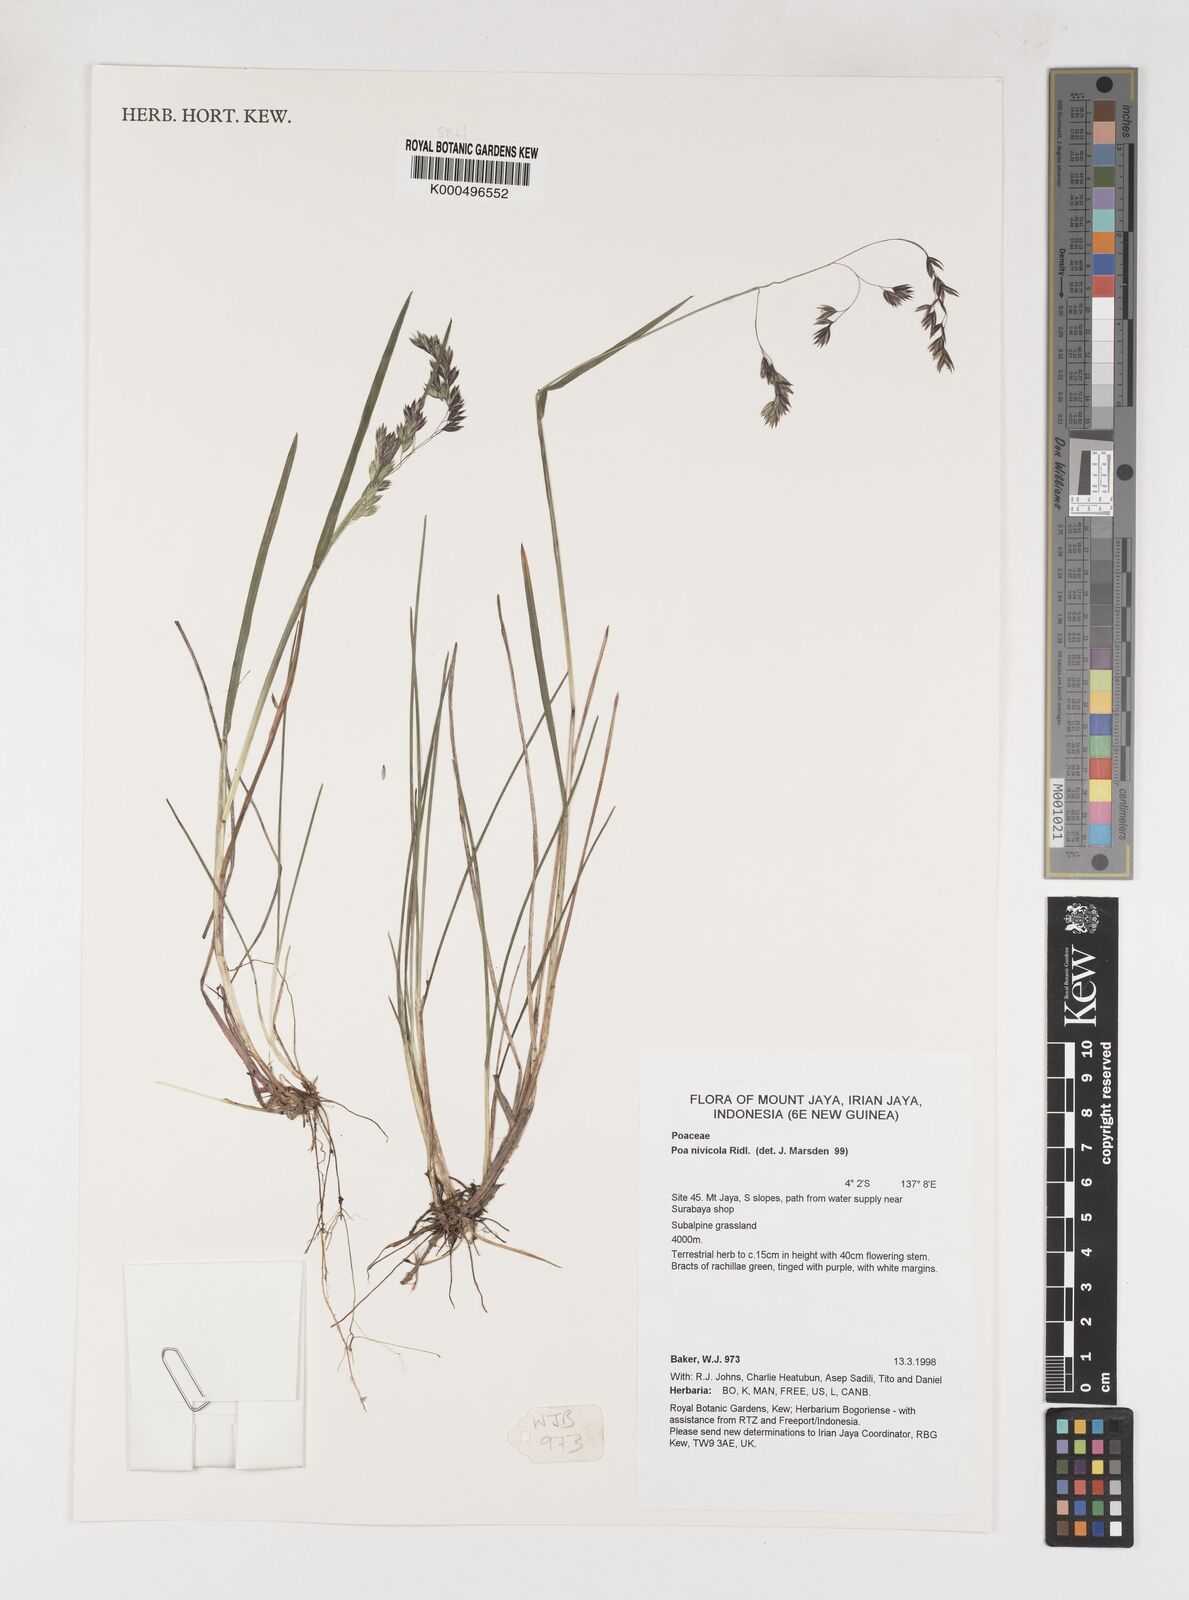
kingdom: Plantae
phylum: Tracheophyta
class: Liliopsida
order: Poales
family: Poaceae
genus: Poa
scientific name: Poa
